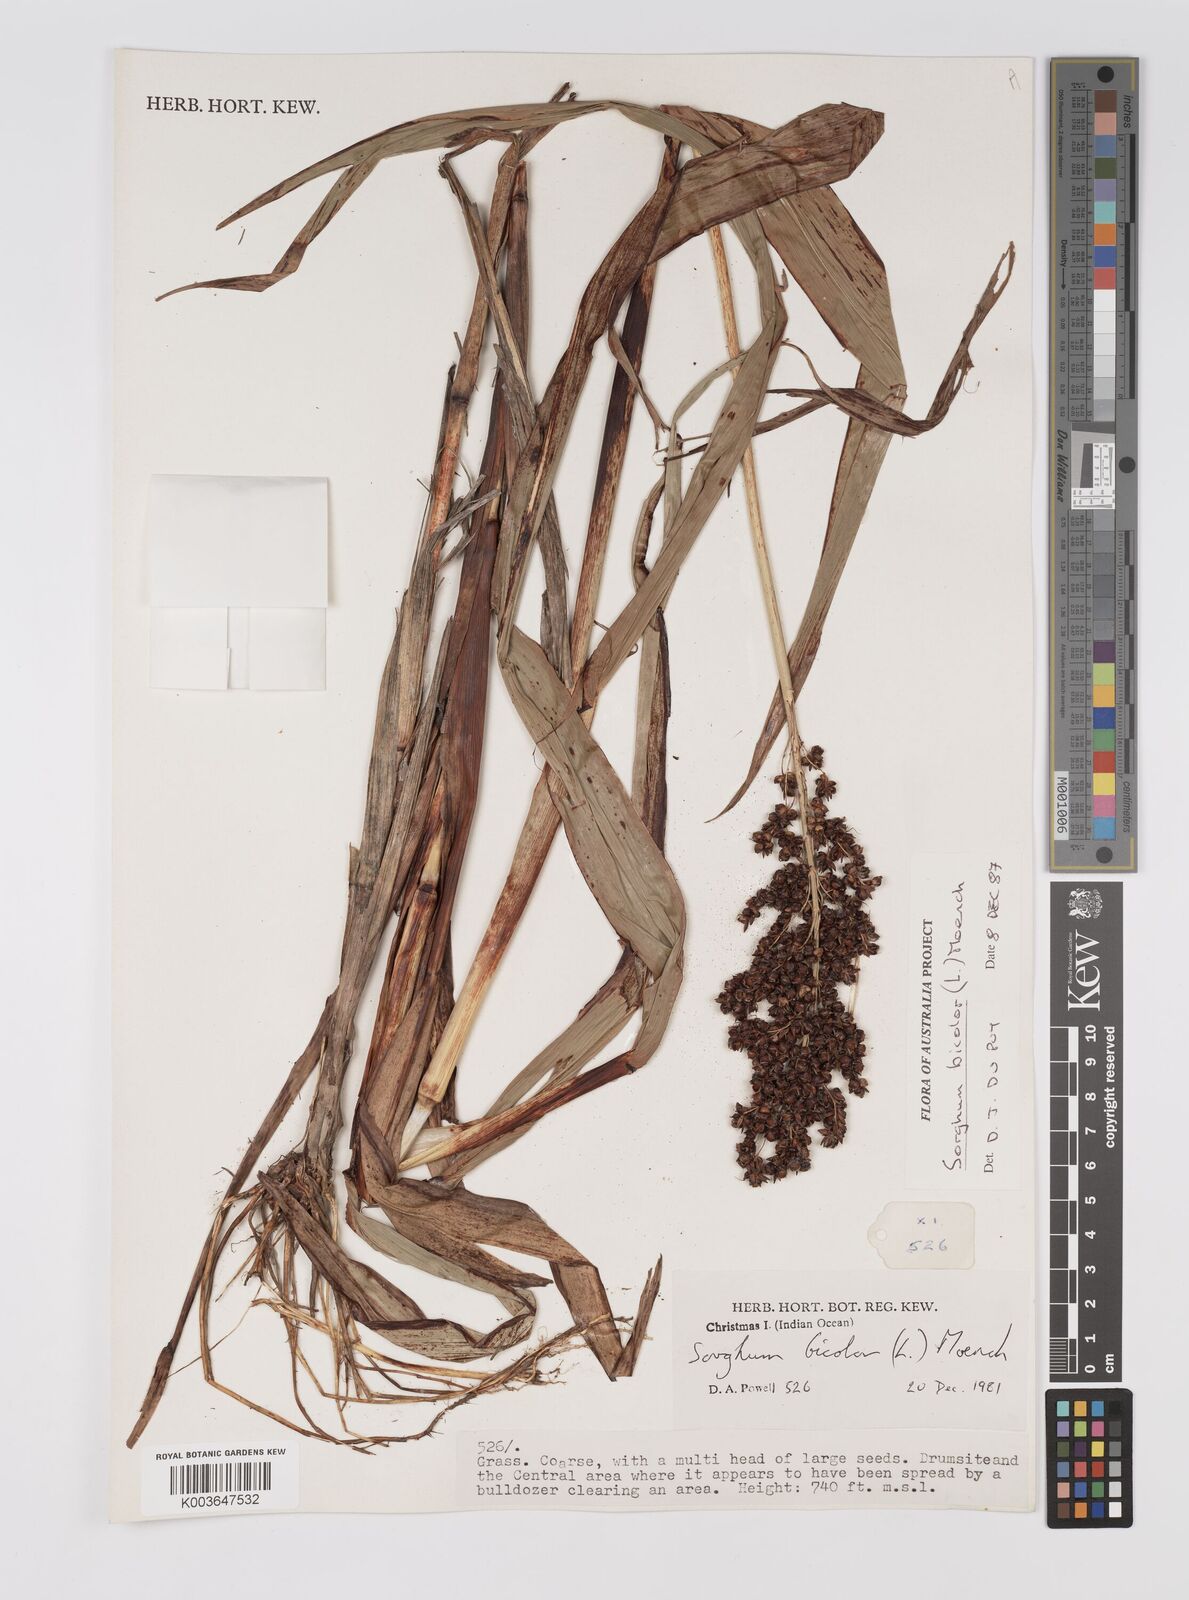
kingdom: Plantae
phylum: Tracheophyta
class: Liliopsida
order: Poales
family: Poaceae
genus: Hyparrhenia
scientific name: Hyparrhenia dichroa
